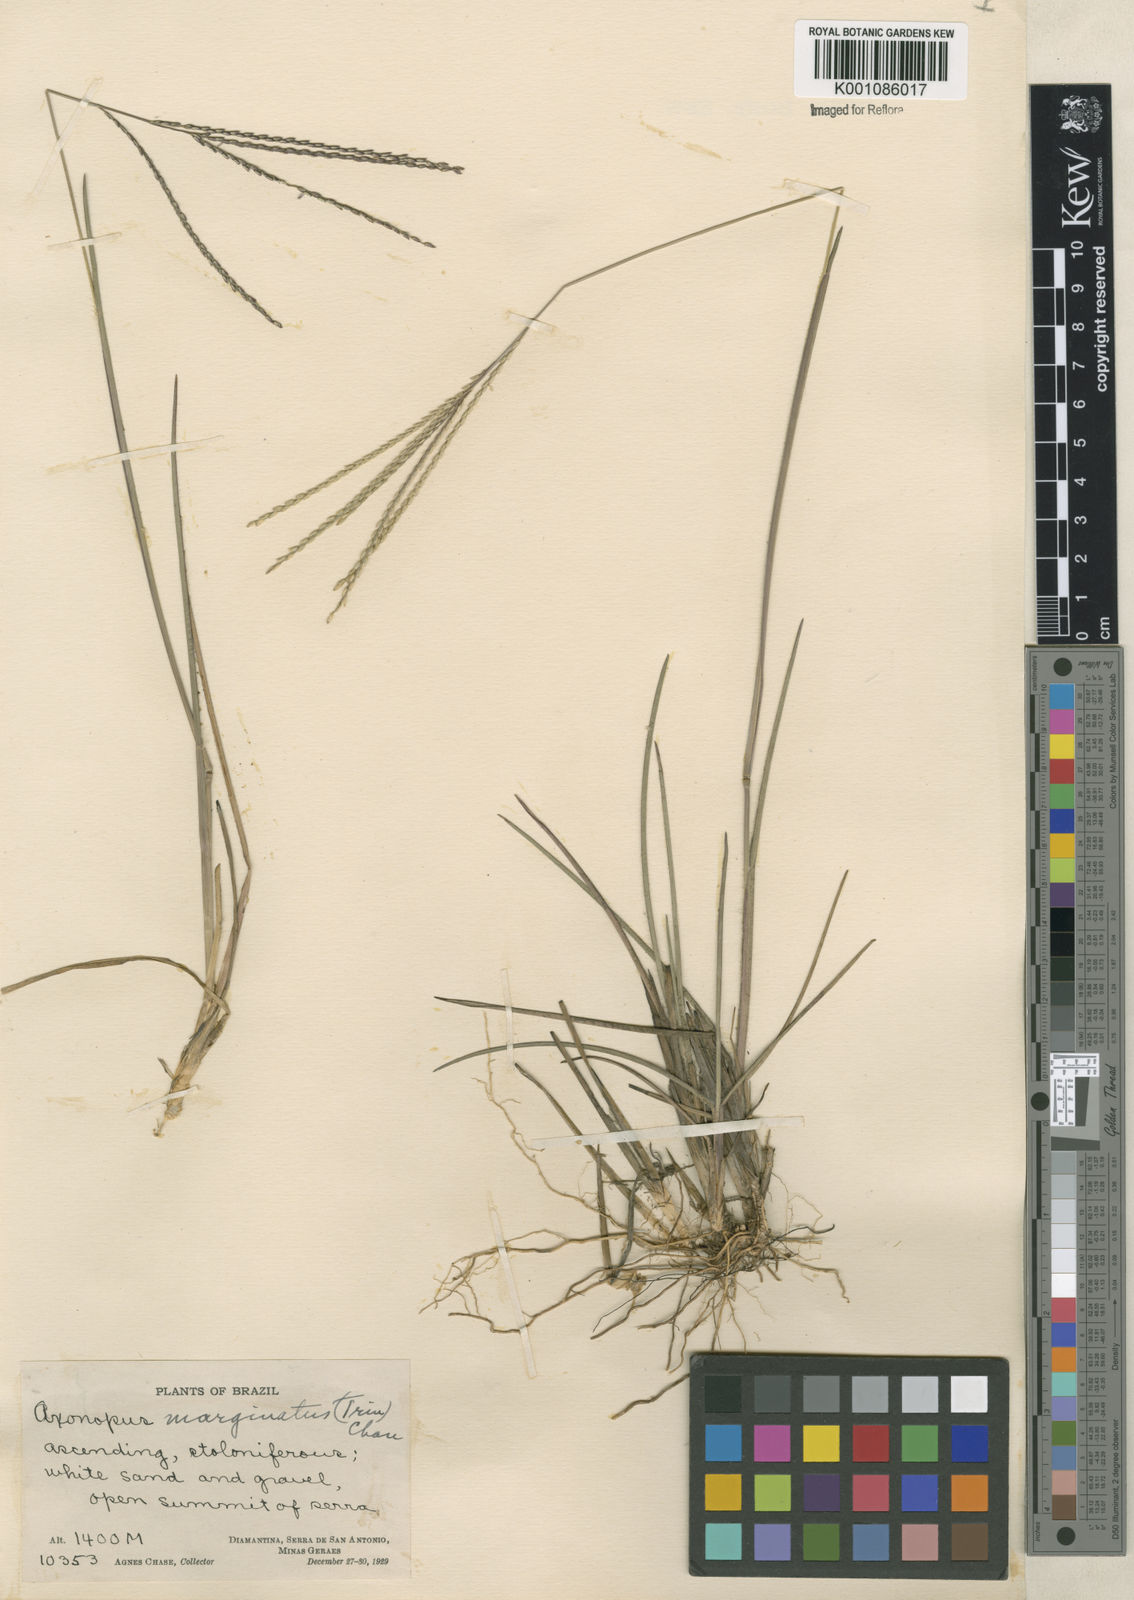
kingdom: Plantae
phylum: Tracheophyta
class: Liliopsida
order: Poales
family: Poaceae
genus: Axonopus
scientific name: Axonopus
